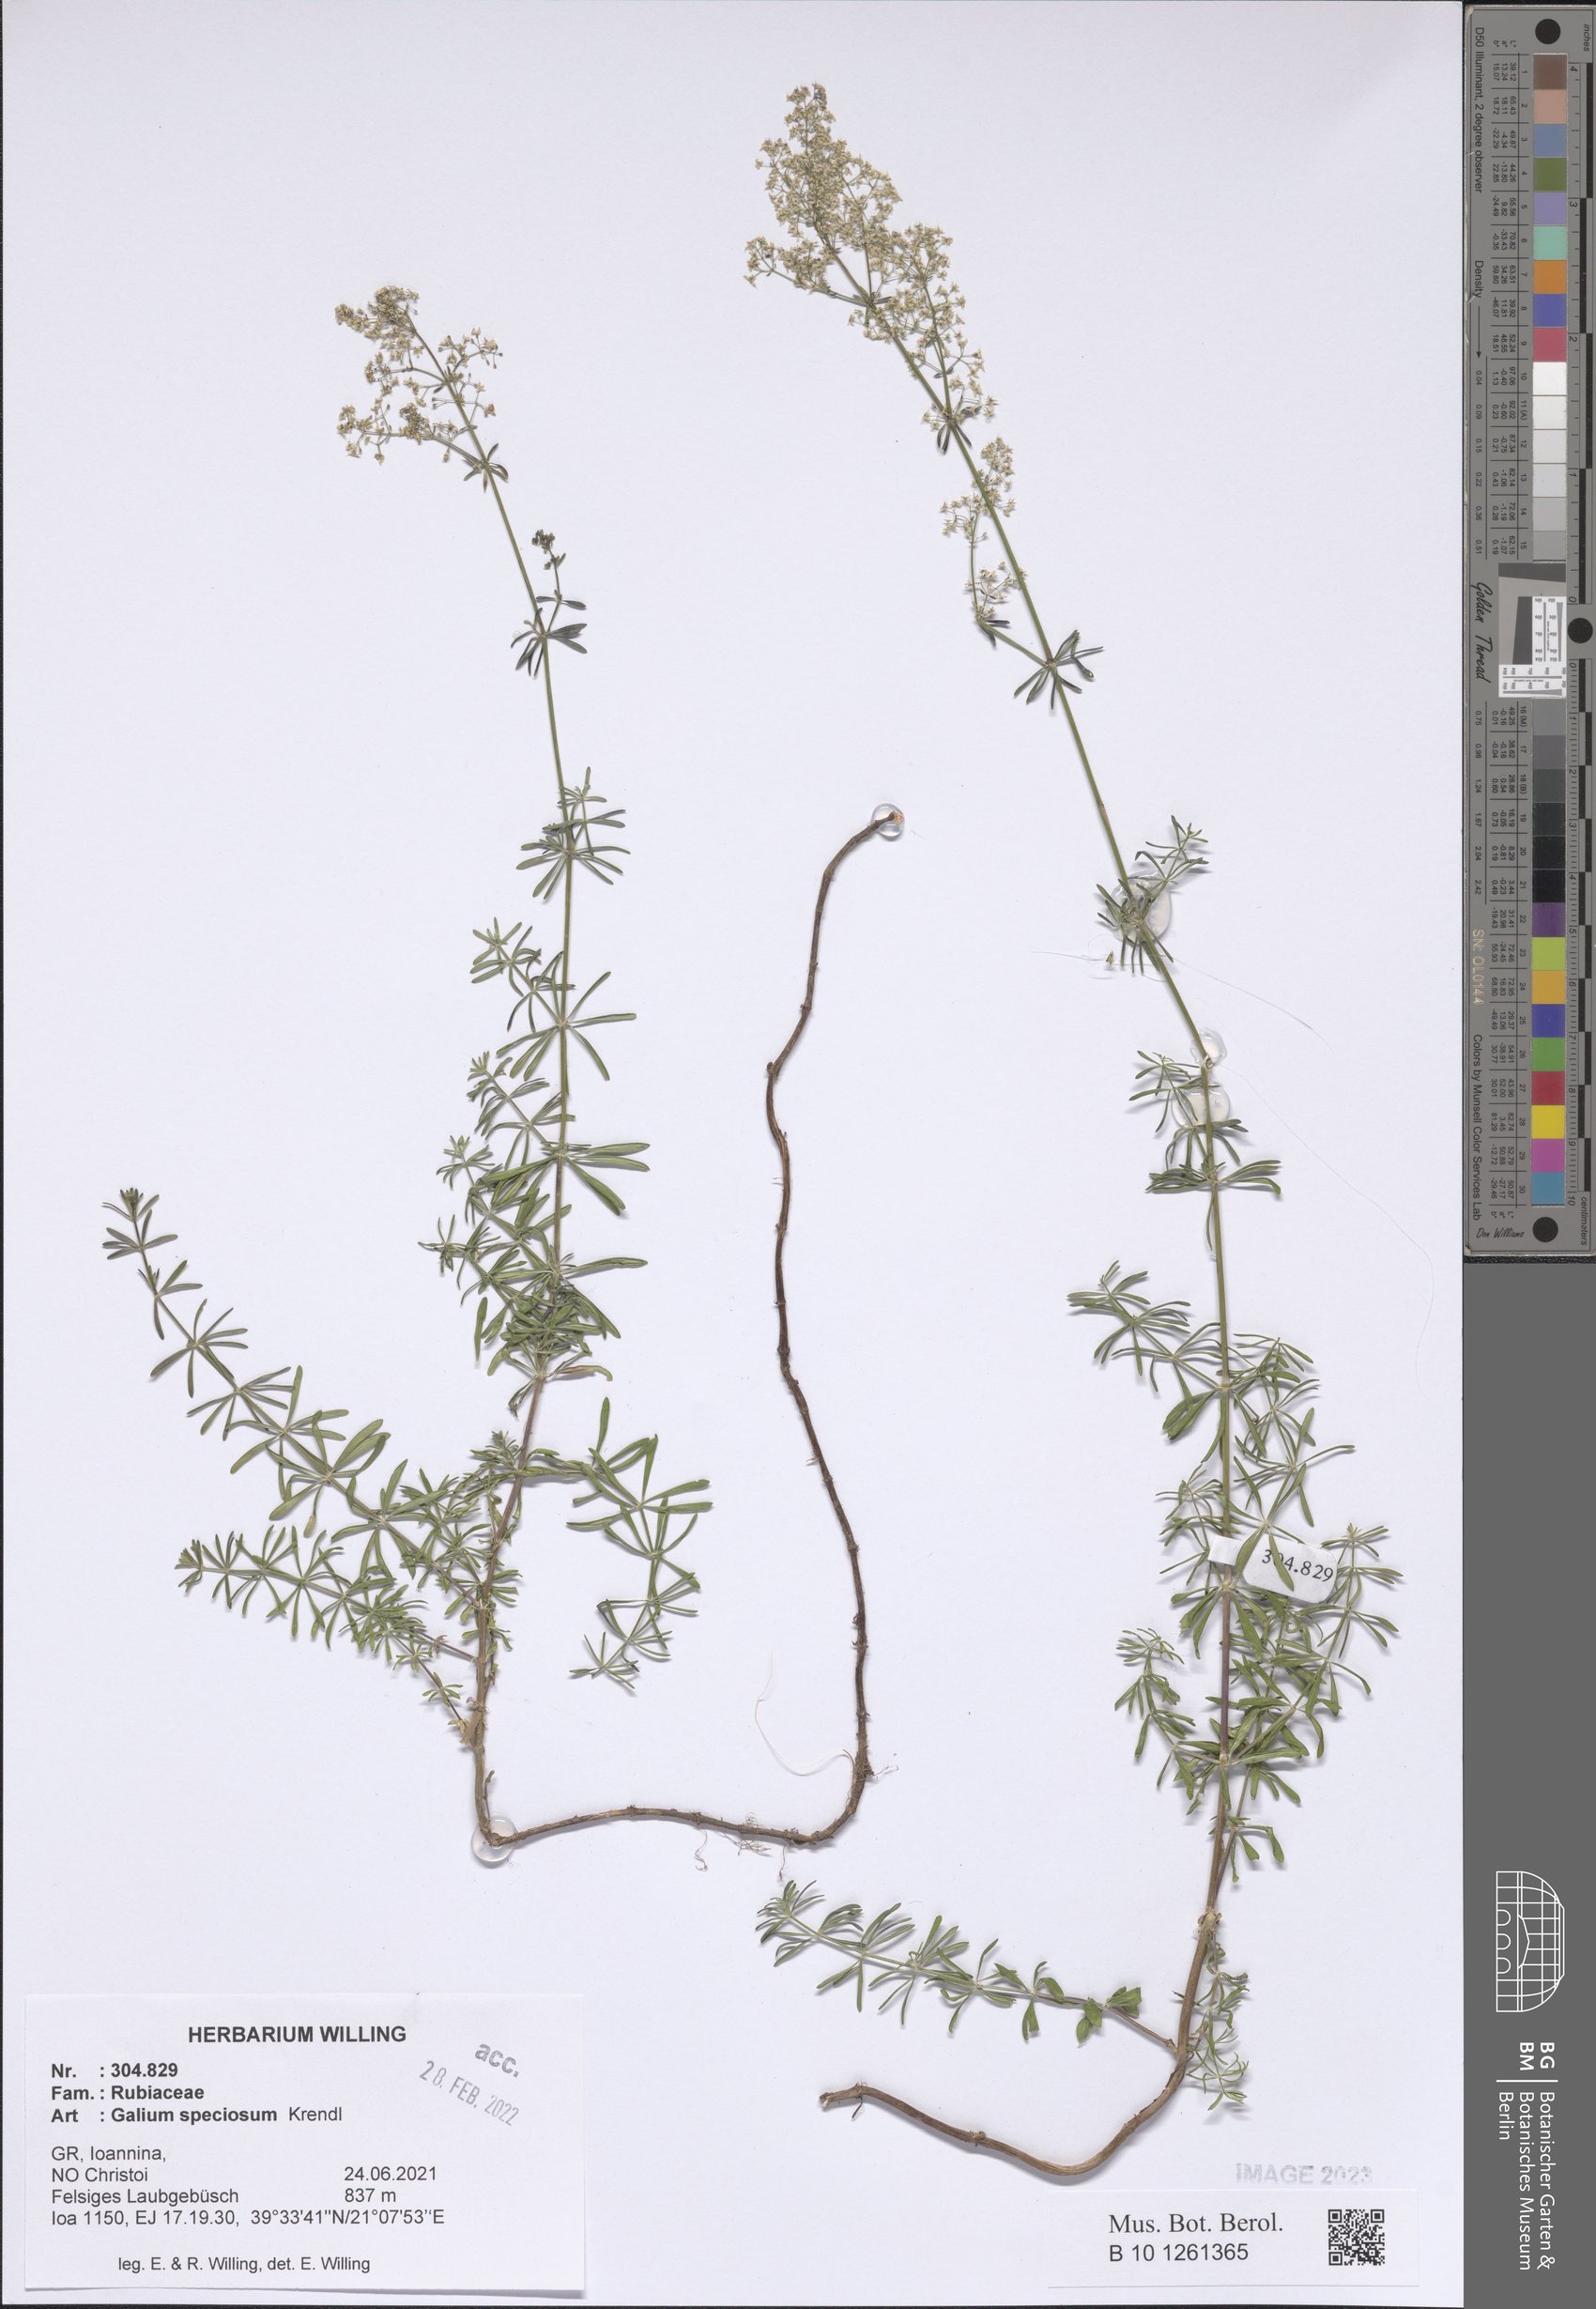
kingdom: Plantae
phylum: Tracheophyta
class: Magnoliopsida
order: Gentianales
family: Rubiaceae
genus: Galium
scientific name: Galium speciosum
